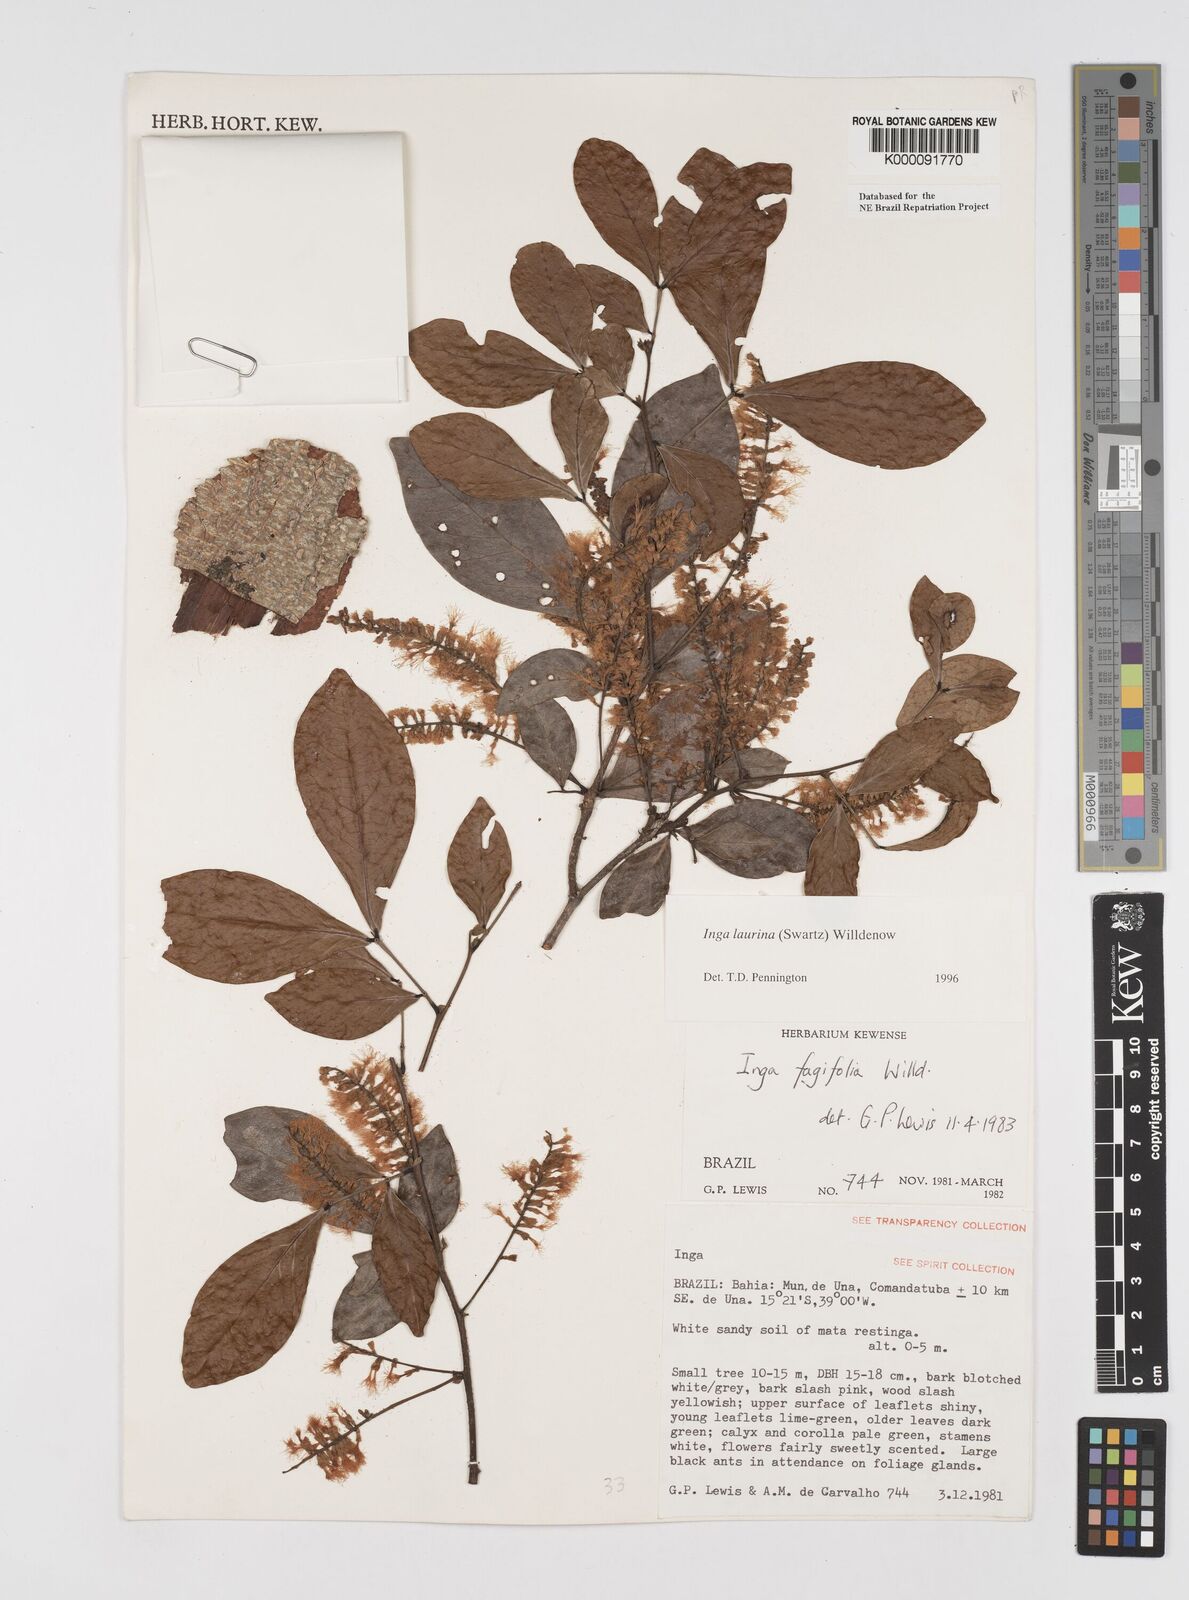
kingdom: Plantae
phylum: Tracheophyta
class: Magnoliopsida
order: Fabales
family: Fabaceae
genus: Inga
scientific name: Inga laurina
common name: Red wood
